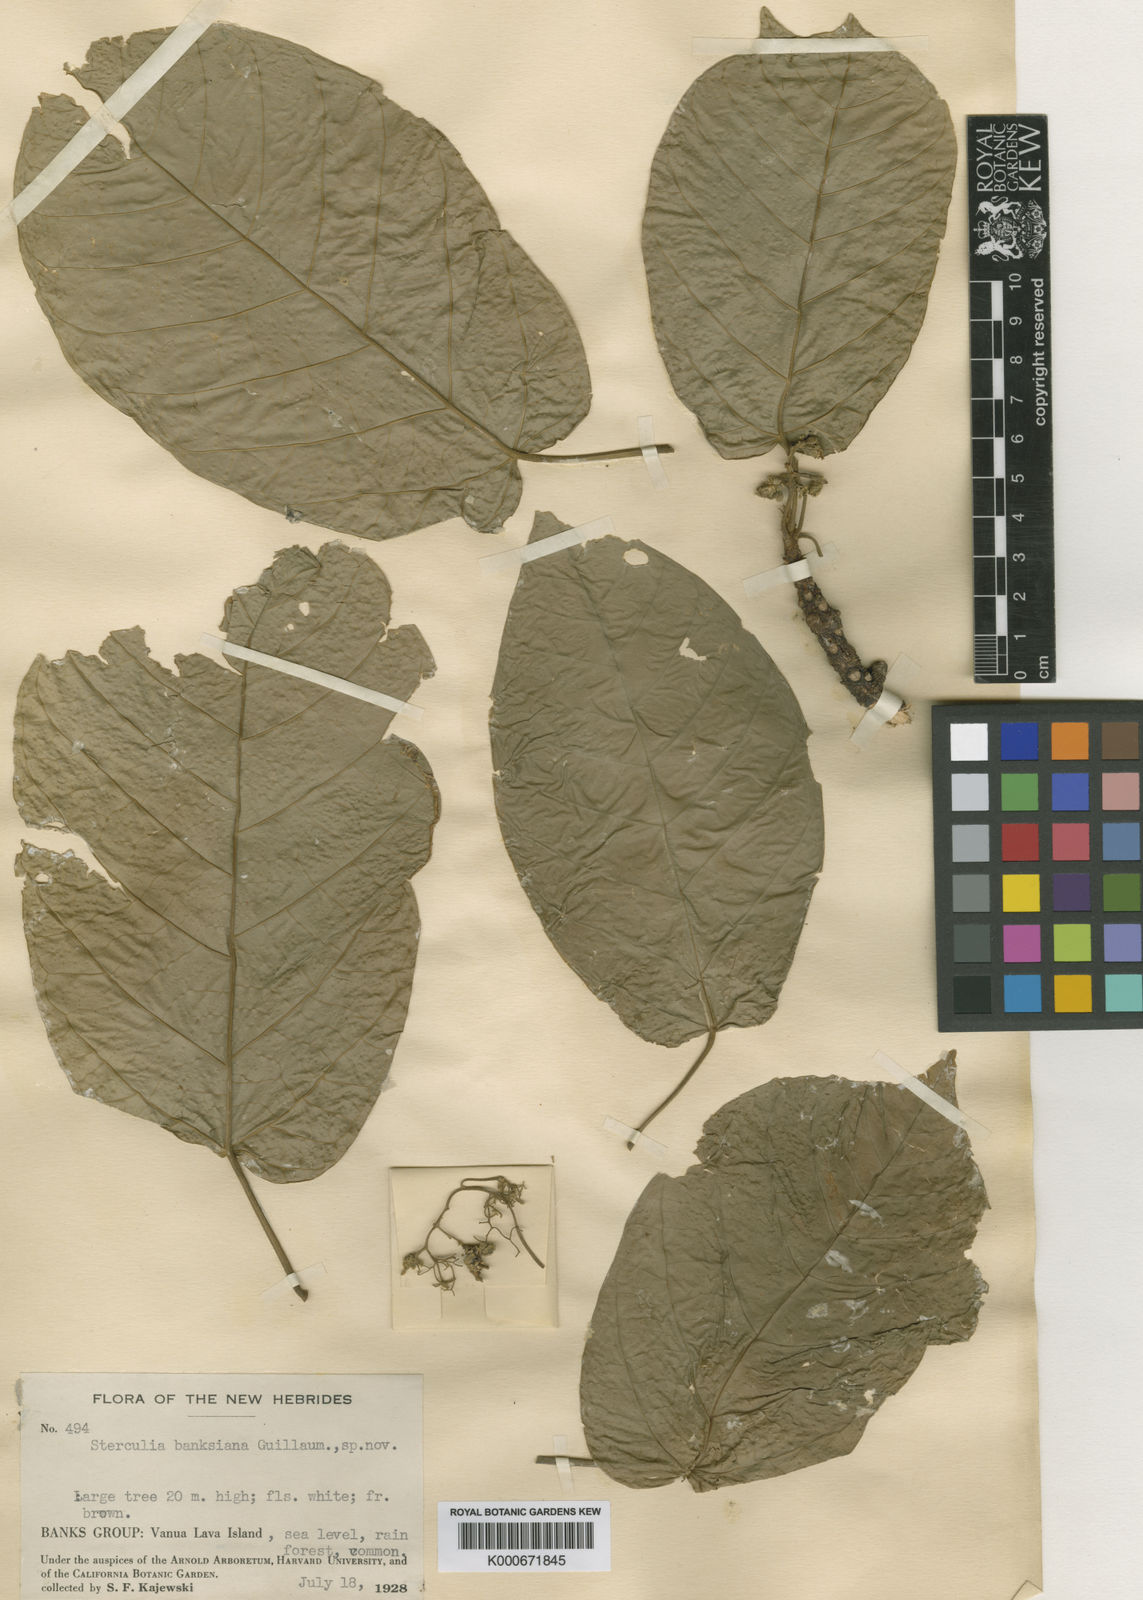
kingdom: Plantae
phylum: Tracheophyta
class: Magnoliopsida
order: Malvales
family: Malvaceae
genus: Sterculia
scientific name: Sterculia banksiana
